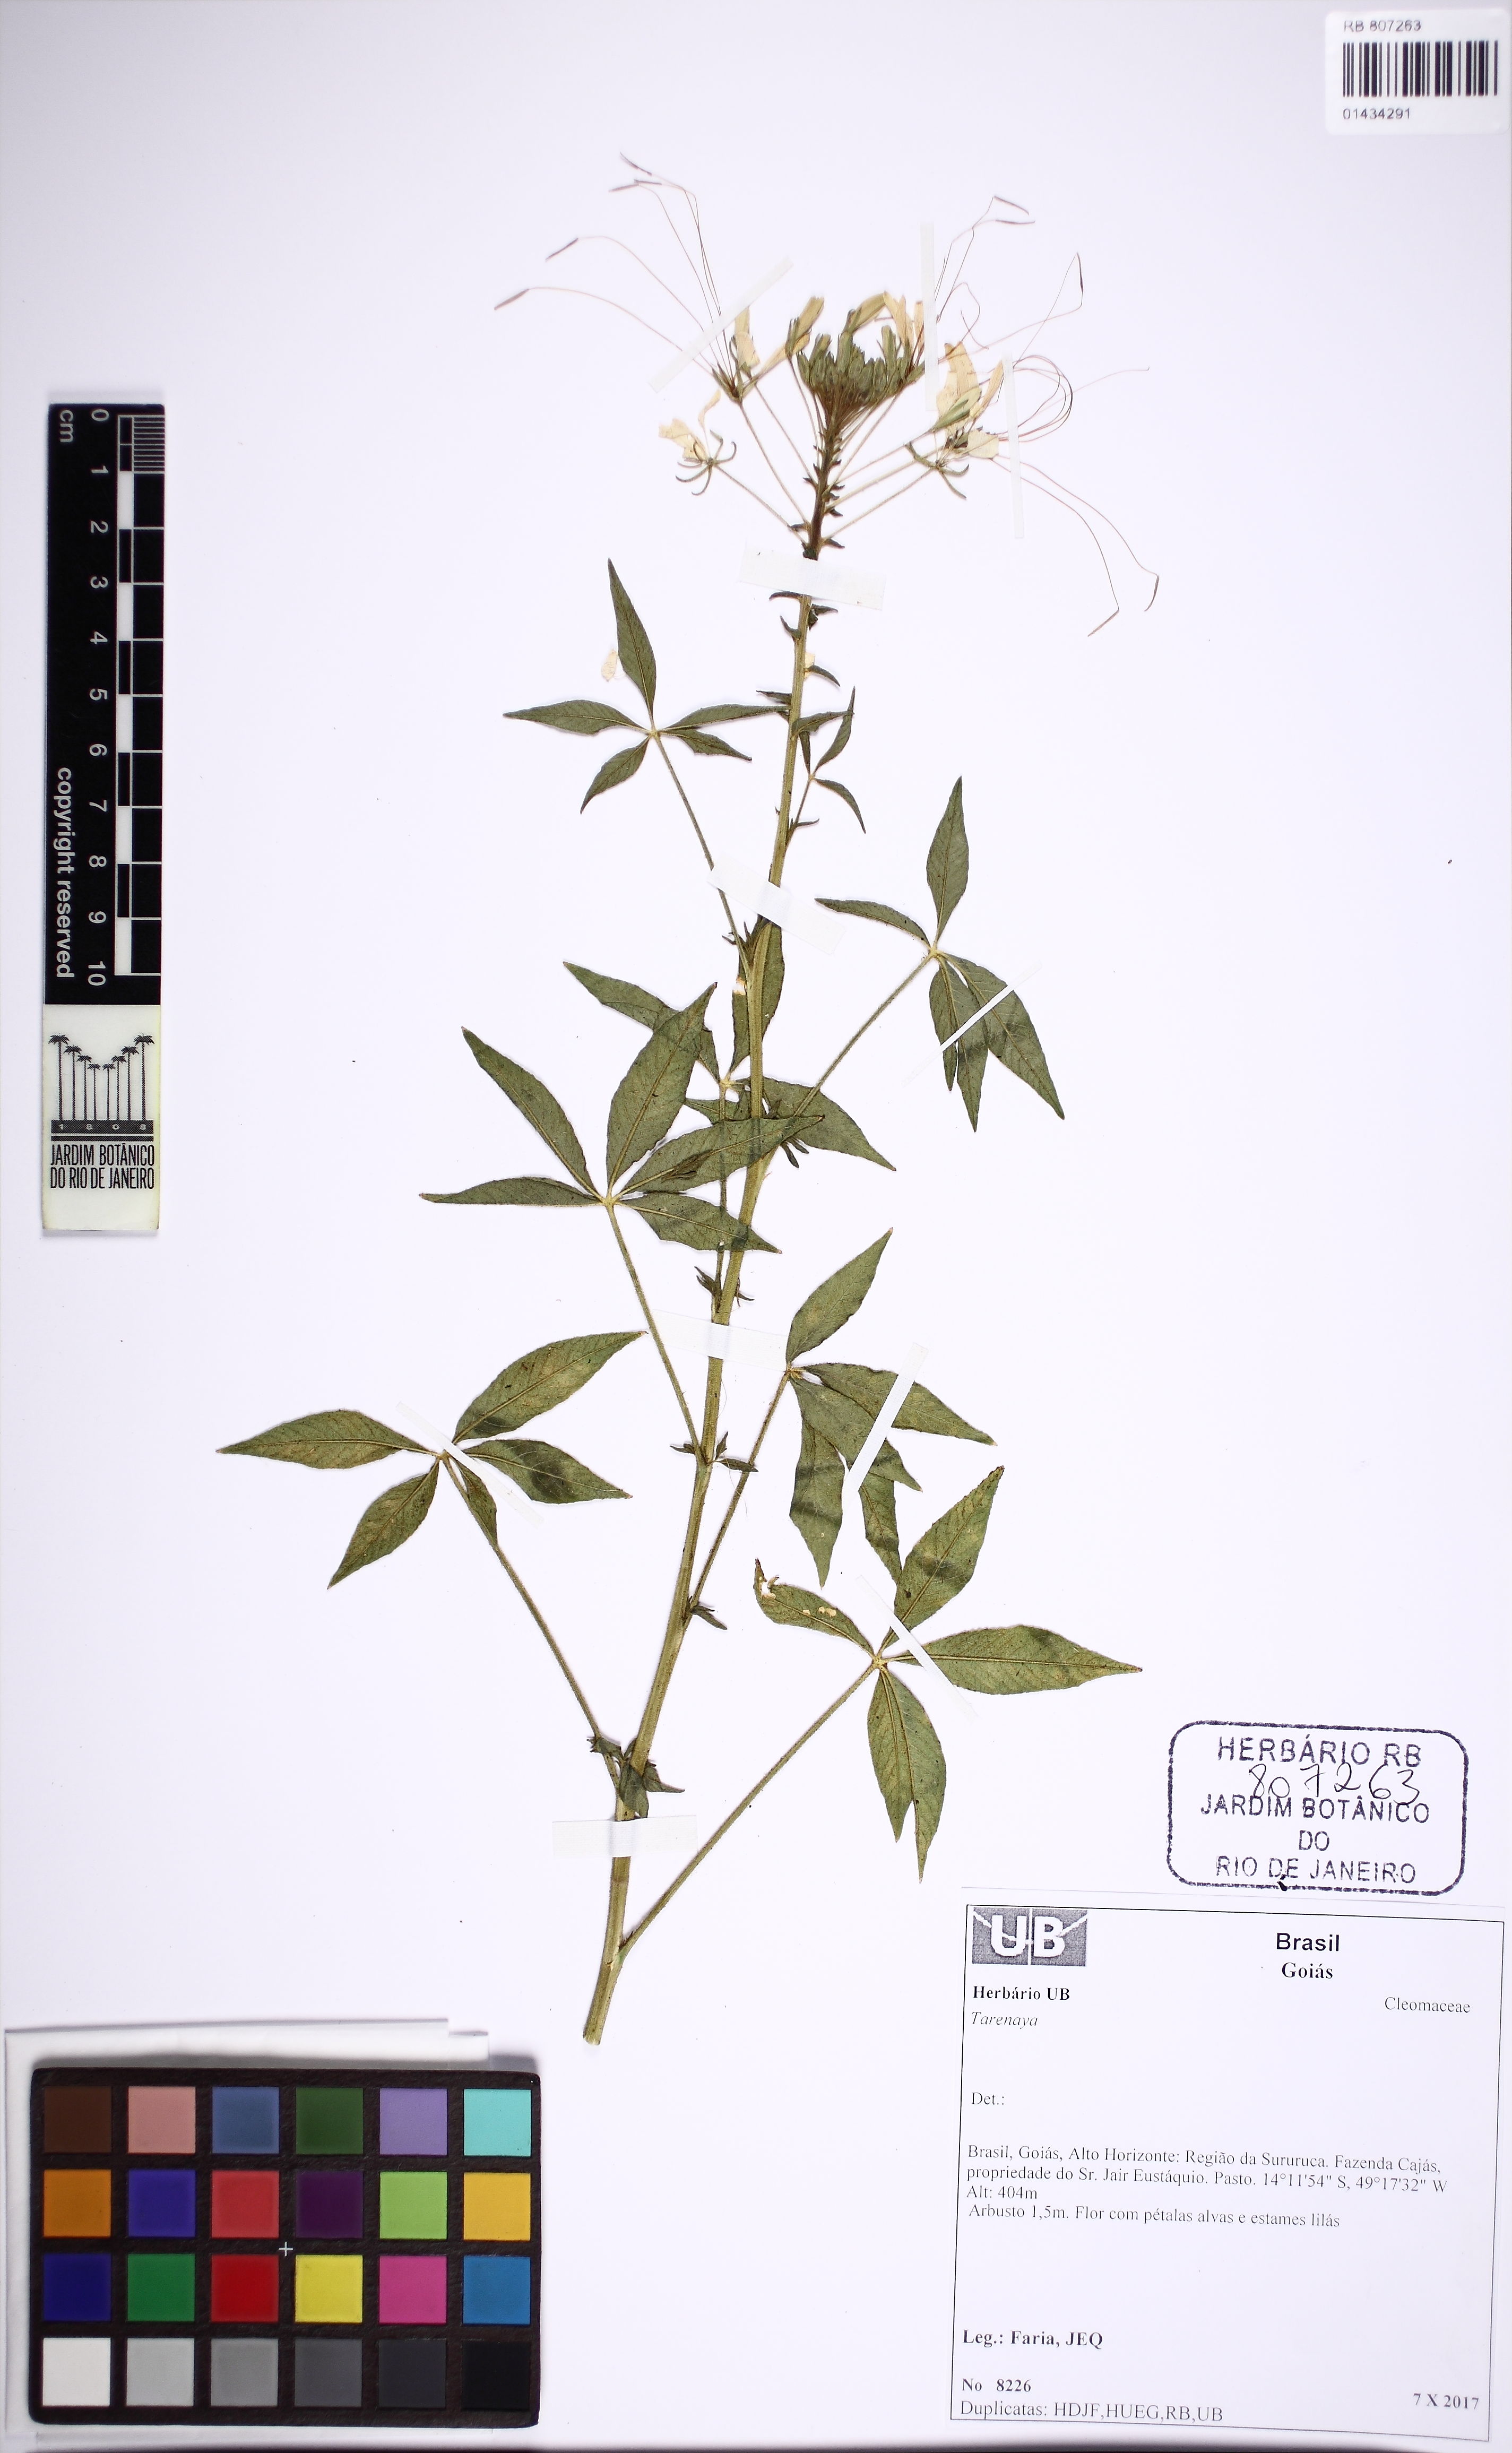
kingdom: Plantae
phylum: Tracheophyta
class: Magnoliopsida
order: Brassicales
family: Cleomaceae
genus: Tarenaya
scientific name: Tarenaya
